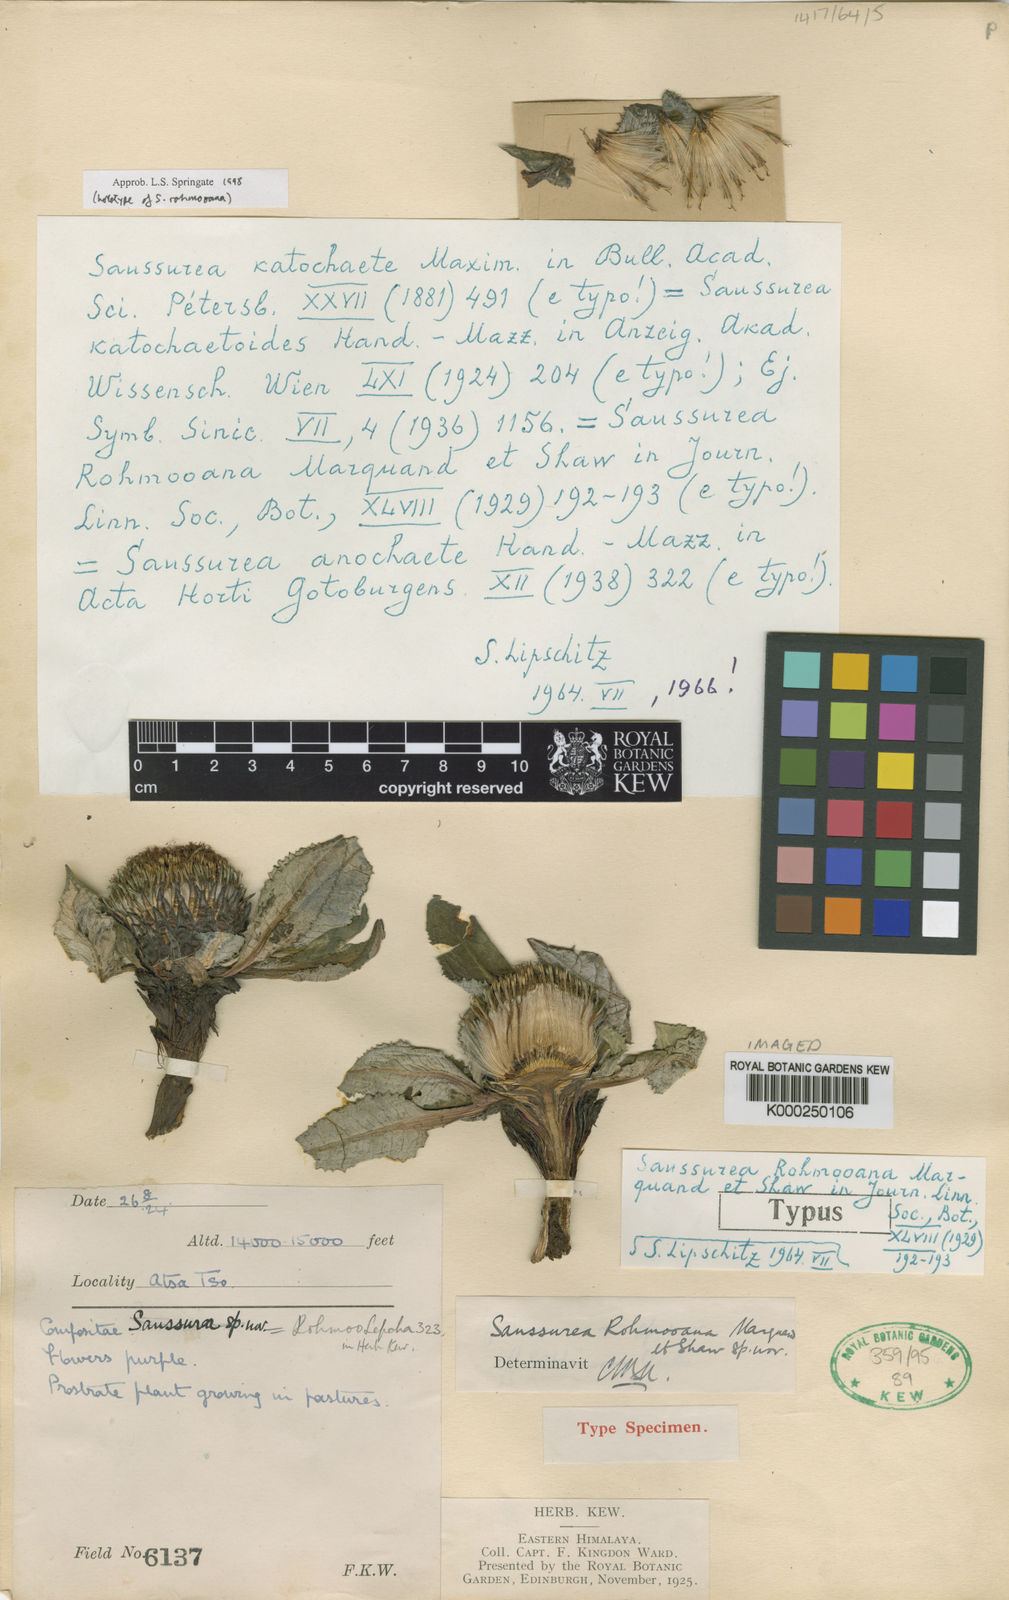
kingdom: Plantae
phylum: Tracheophyta
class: Magnoliopsida
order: Asterales
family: Asteraceae
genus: Saussurea
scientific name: Saussurea katochaete
